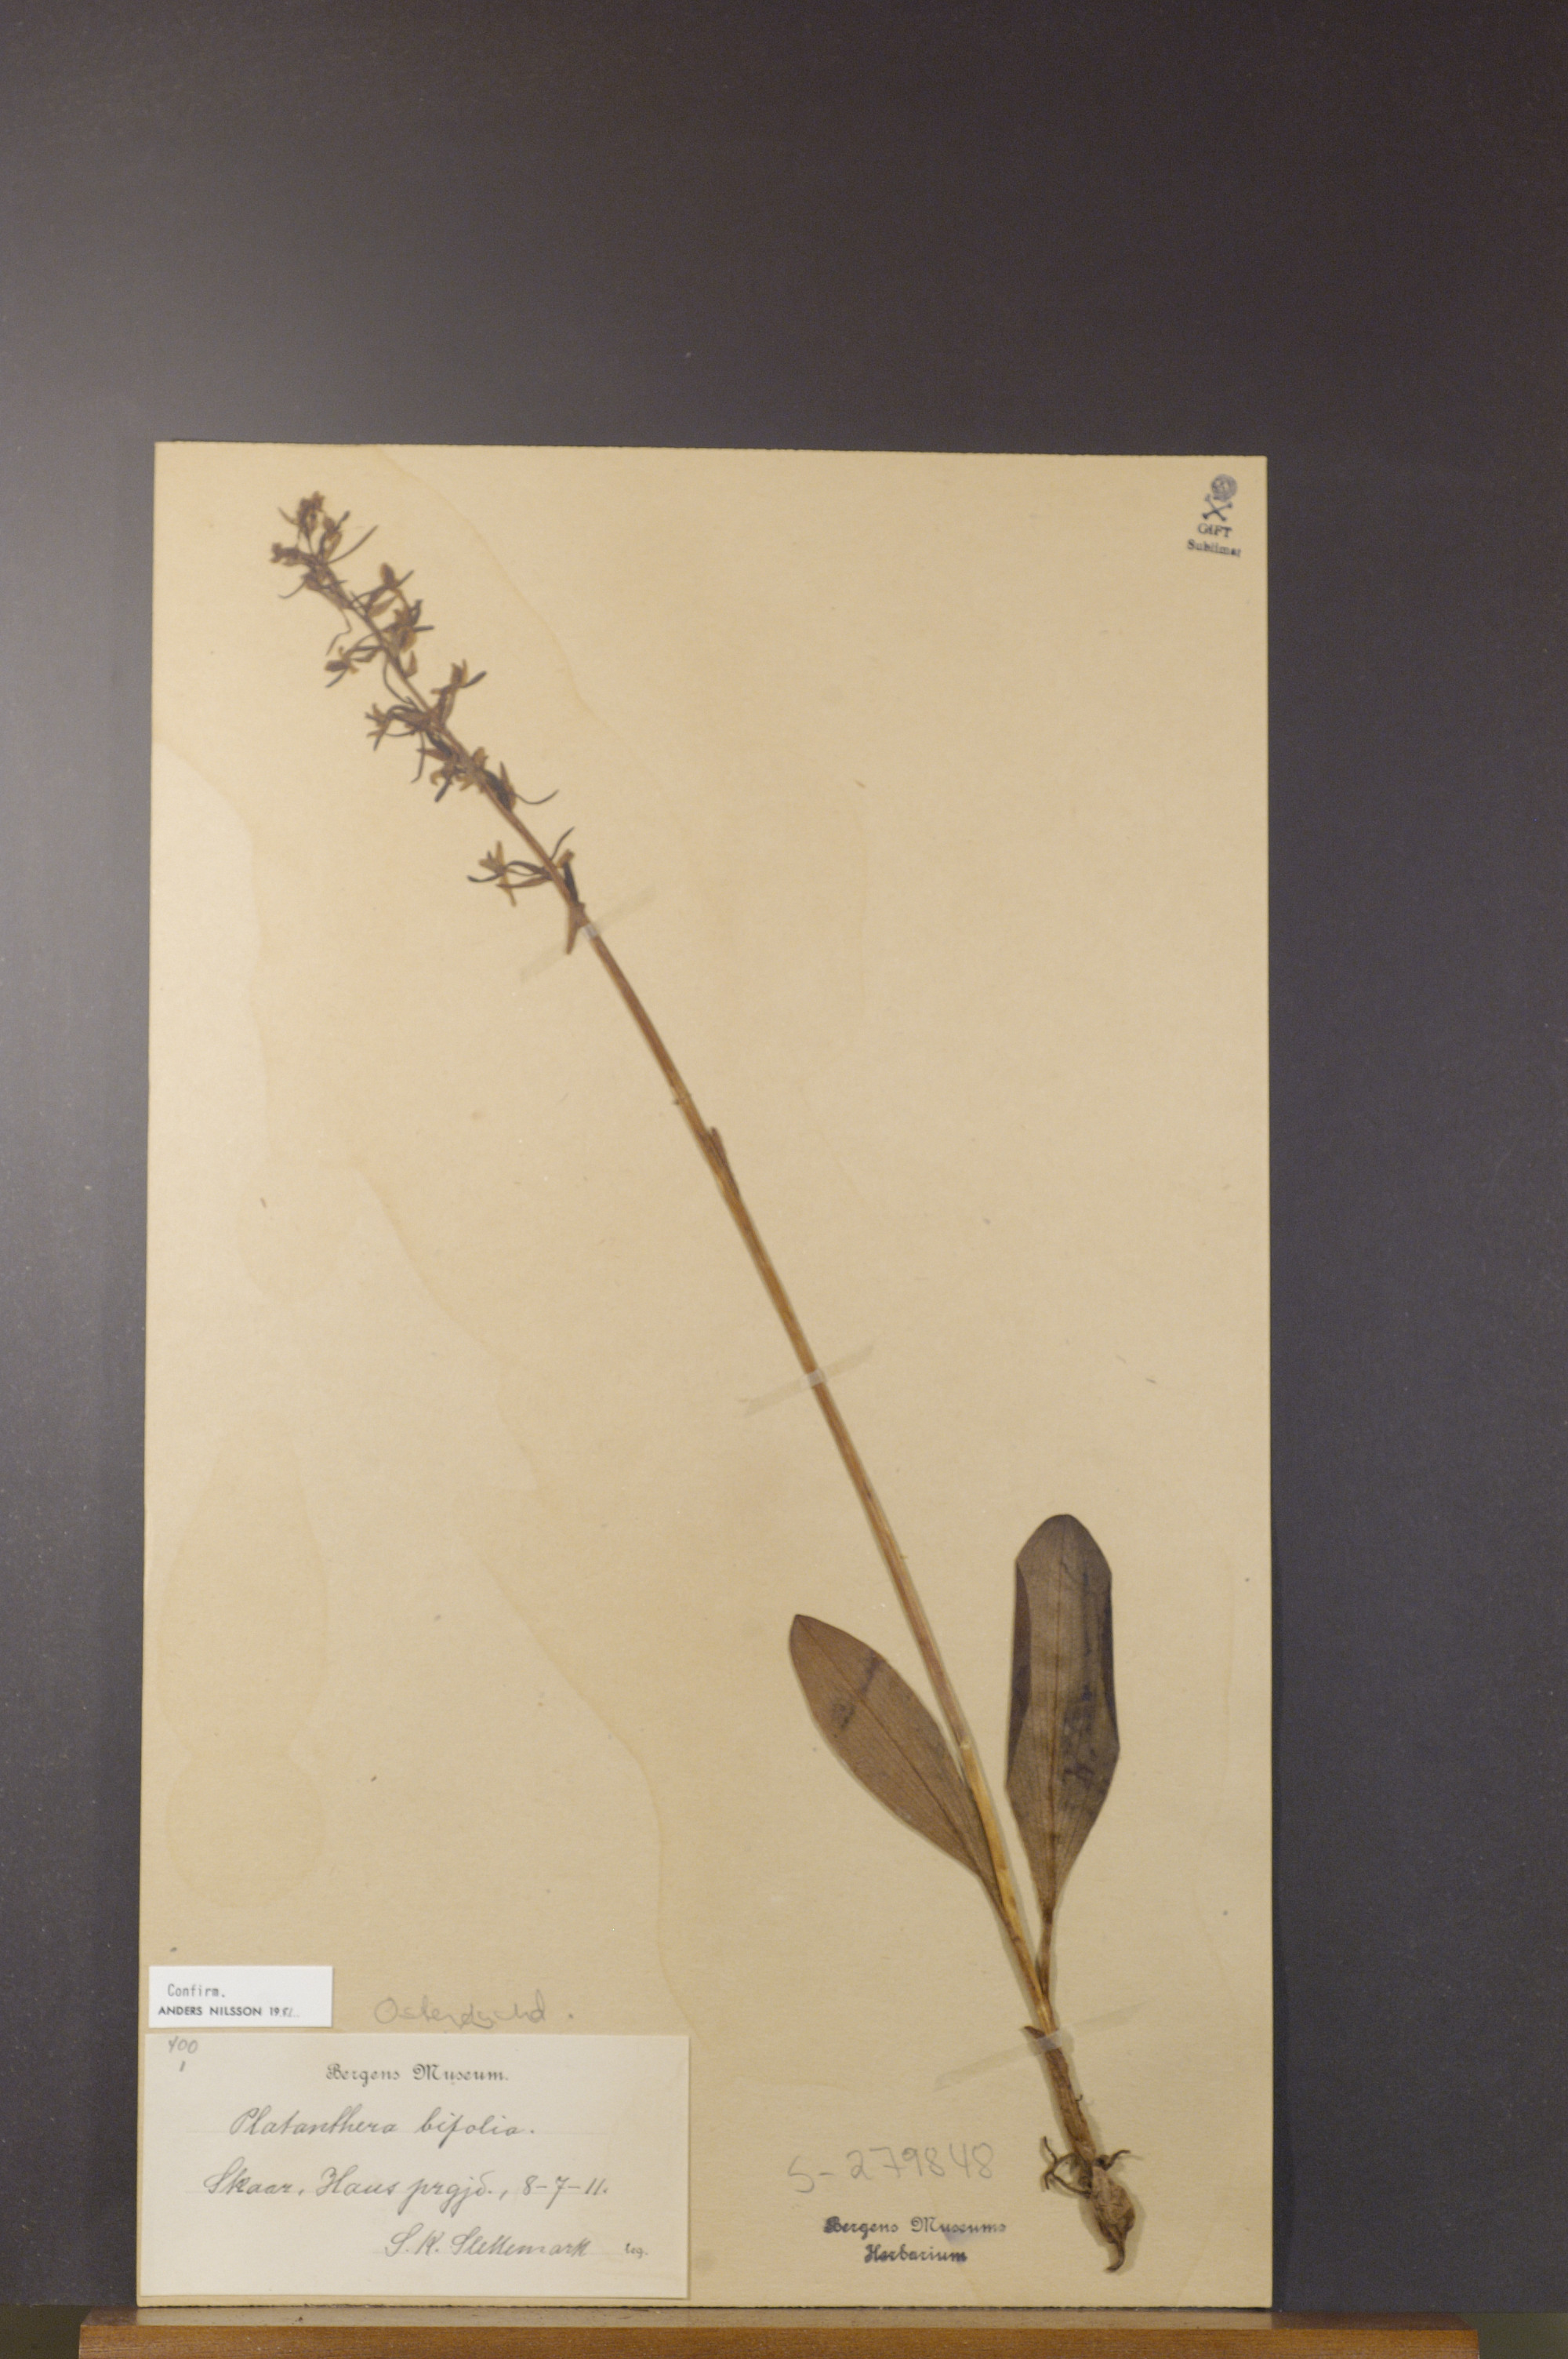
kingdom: Plantae
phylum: Tracheophyta
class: Liliopsida
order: Asparagales
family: Orchidaceae
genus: Platanthera
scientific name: Platanthera bifolia
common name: Lesser butterfly-orchid
